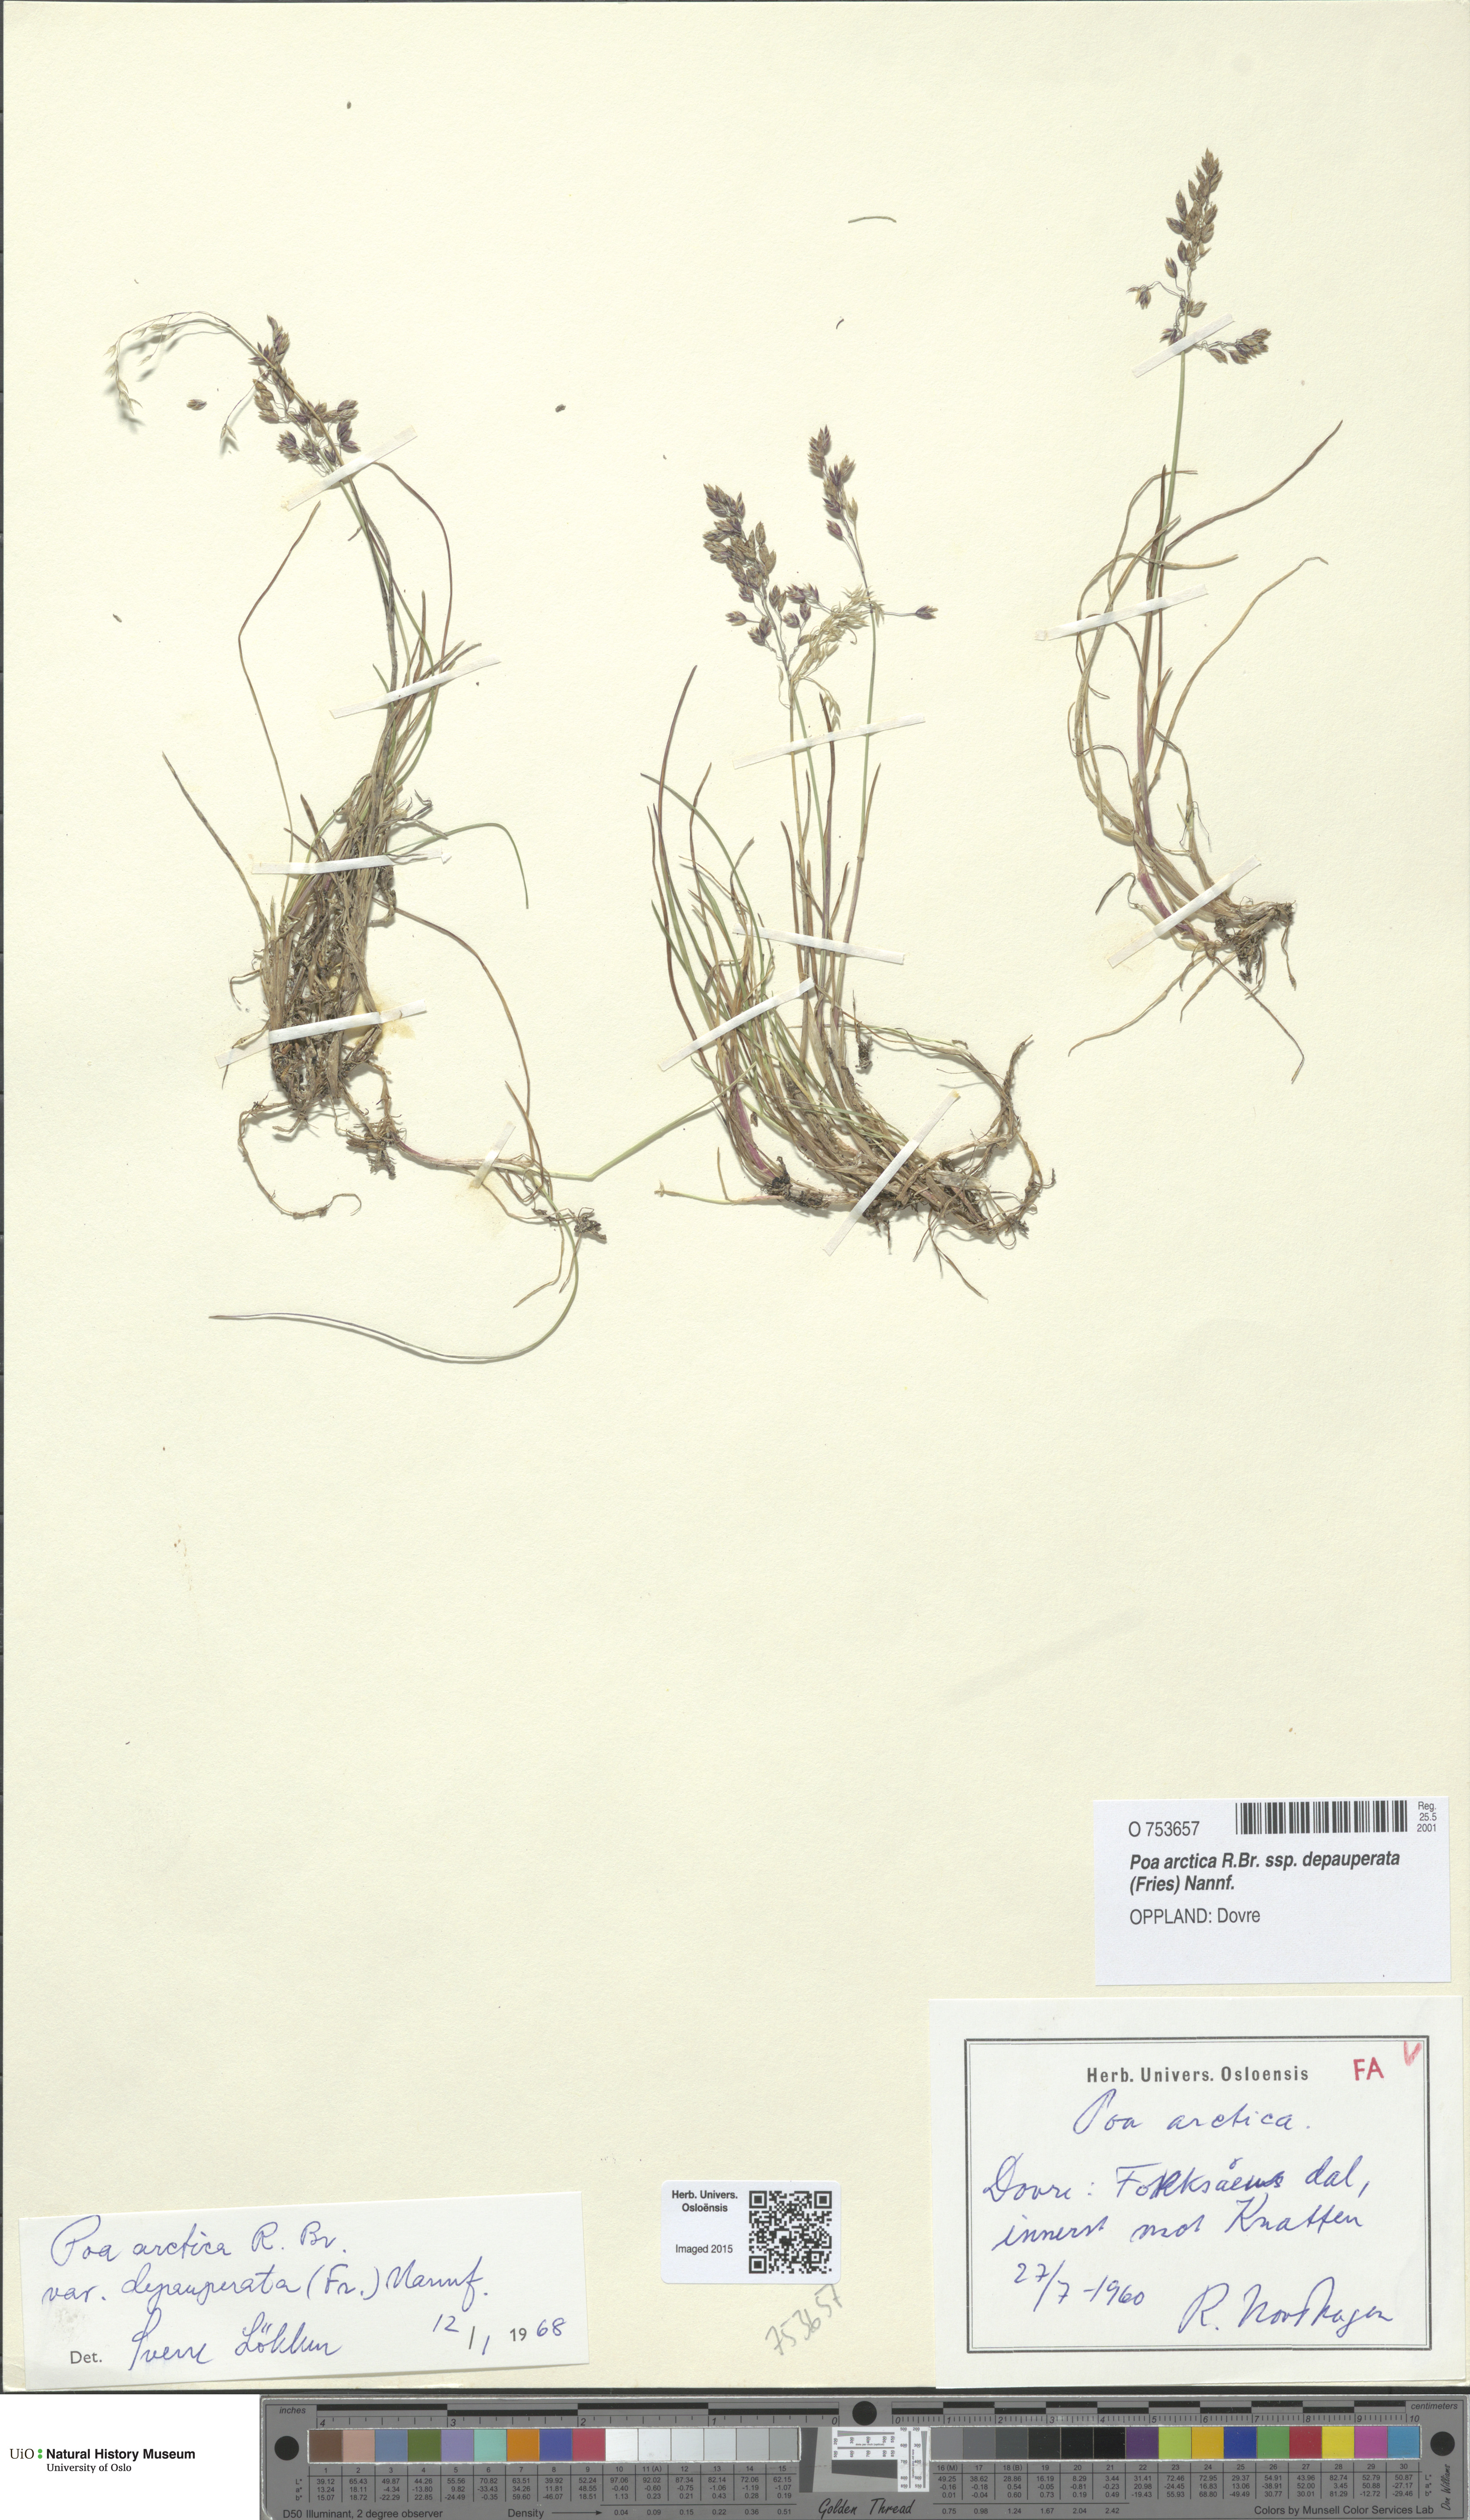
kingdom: Plantae
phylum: Tracheophyta
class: Liliopsida
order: Poales
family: Poaceae
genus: Poa
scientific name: Poa arctica
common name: Arctic bluegrass
